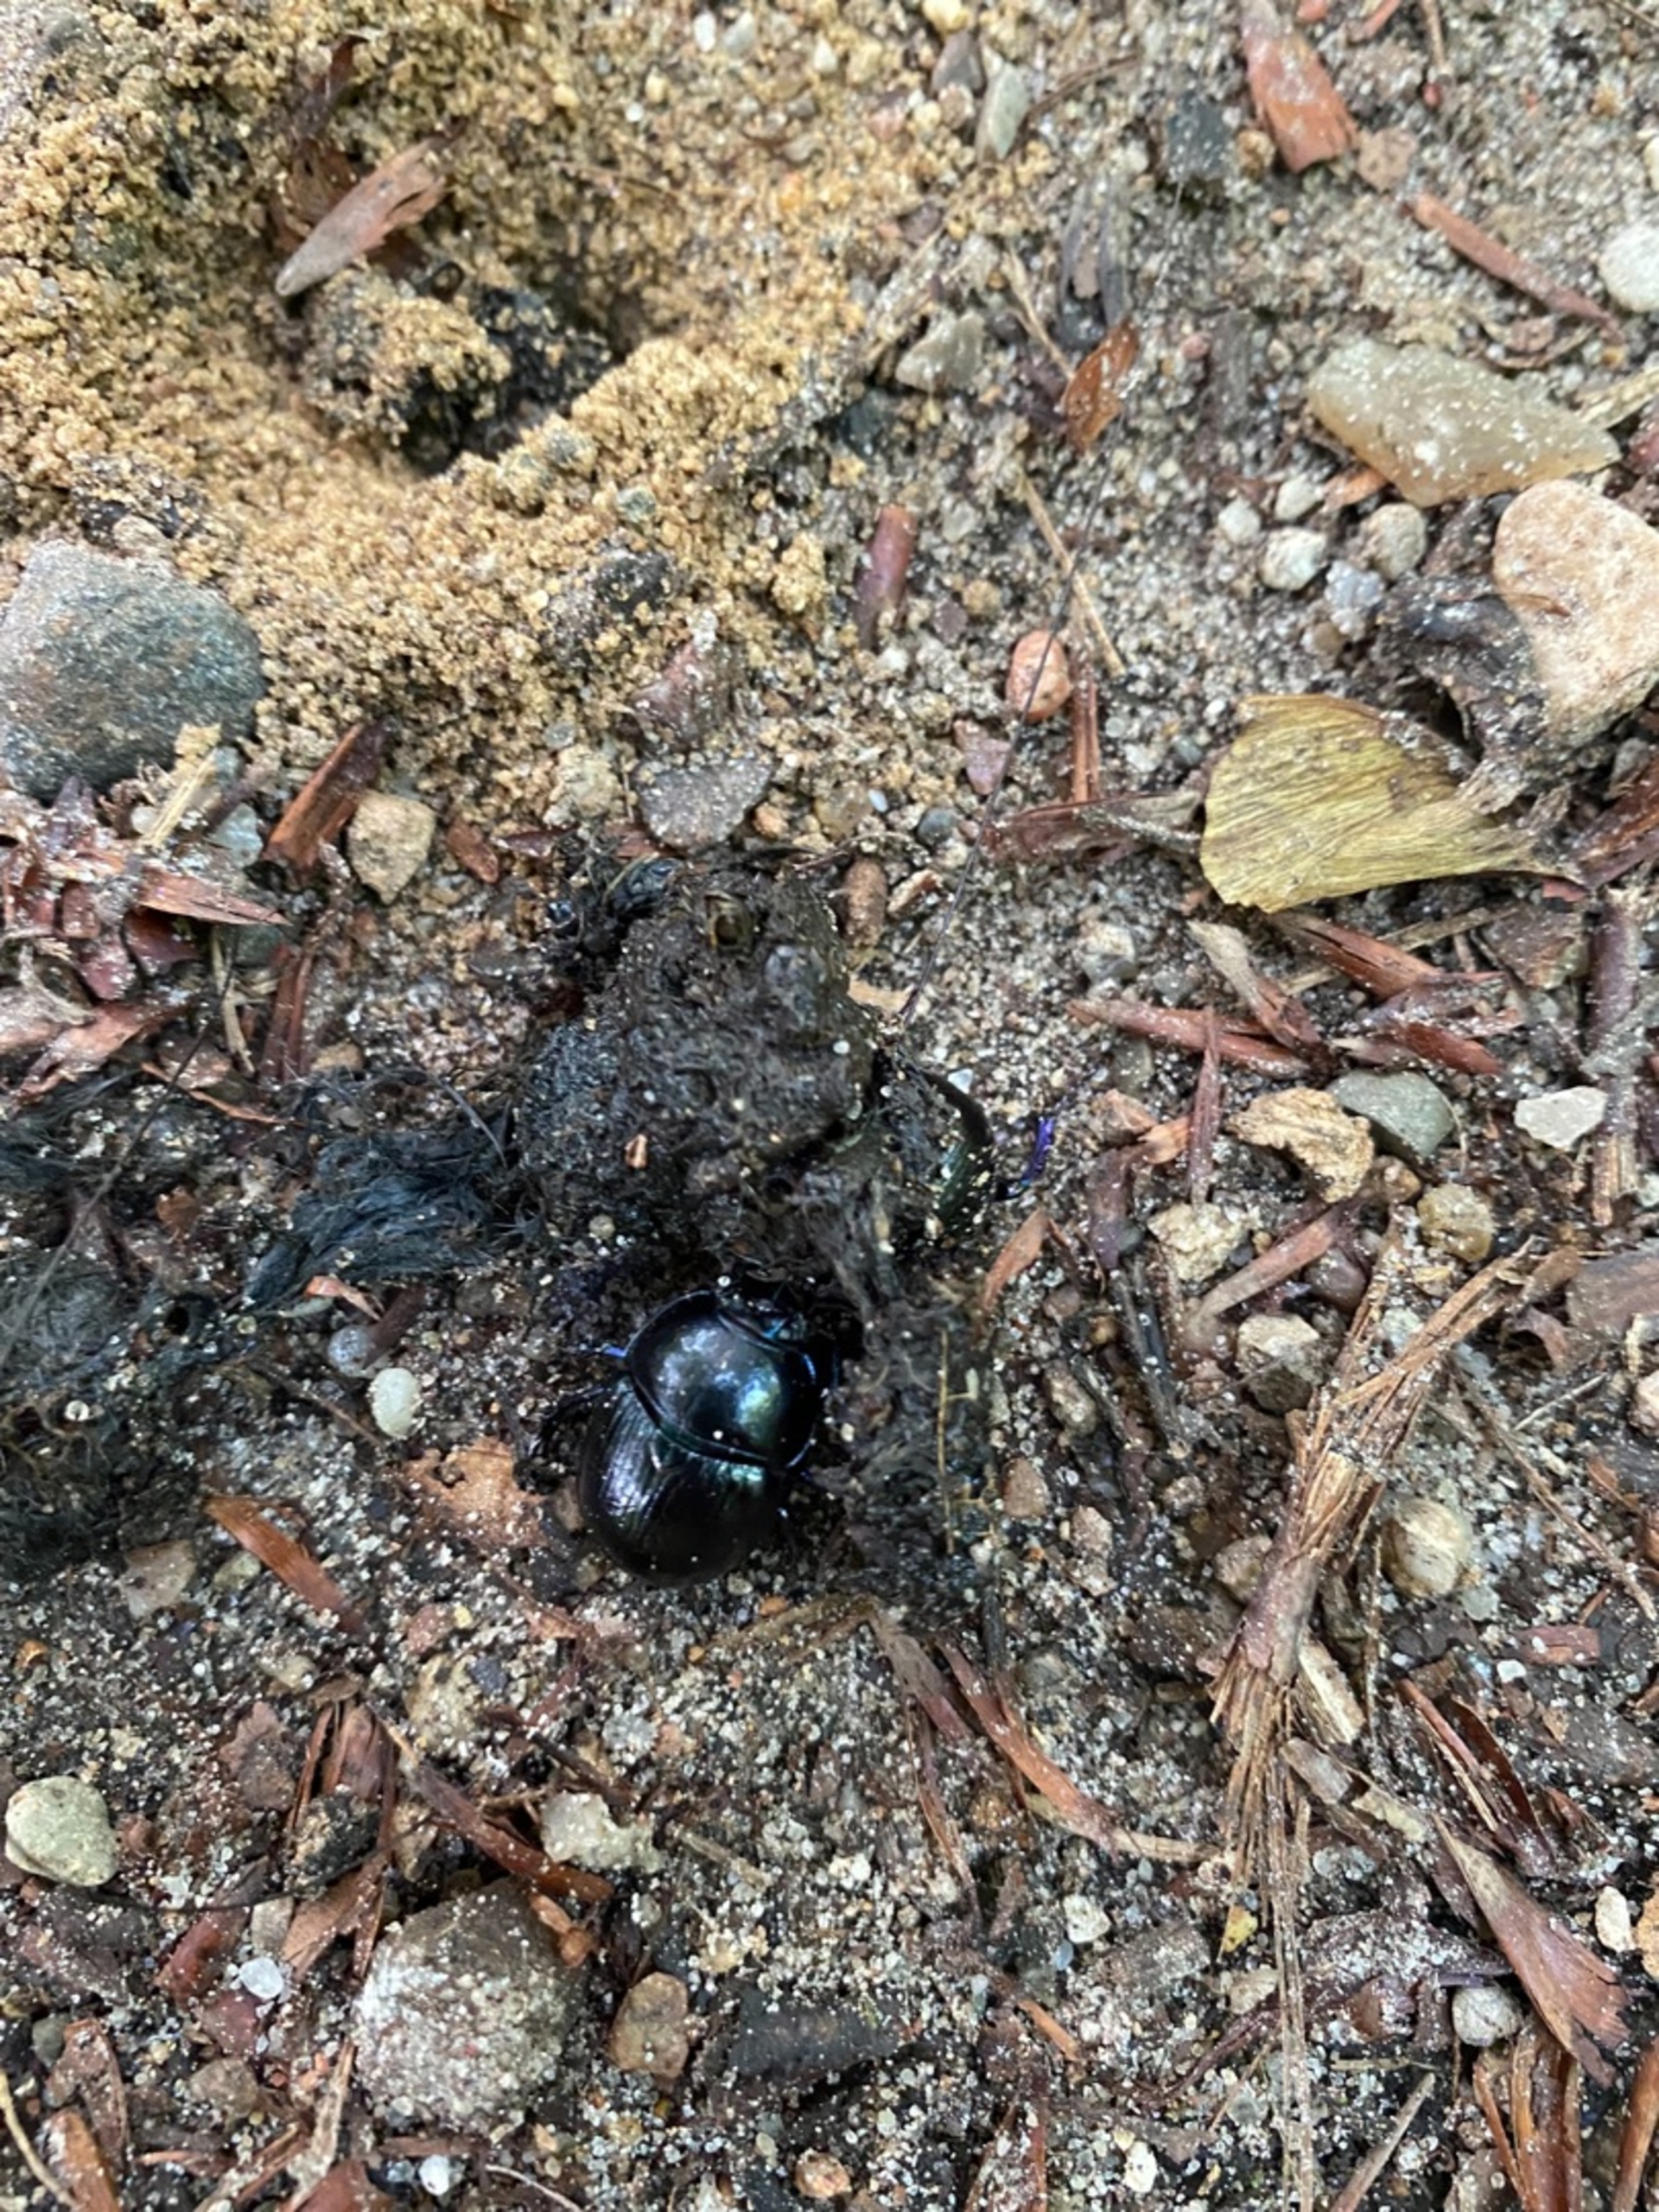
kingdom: Animalia
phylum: Arthropoda
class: Insecta
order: Coleoptera
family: Geotrupidae
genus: Anoplotrupes
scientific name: Anoplotrupes stercorosus
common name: Skovskarnbasse
